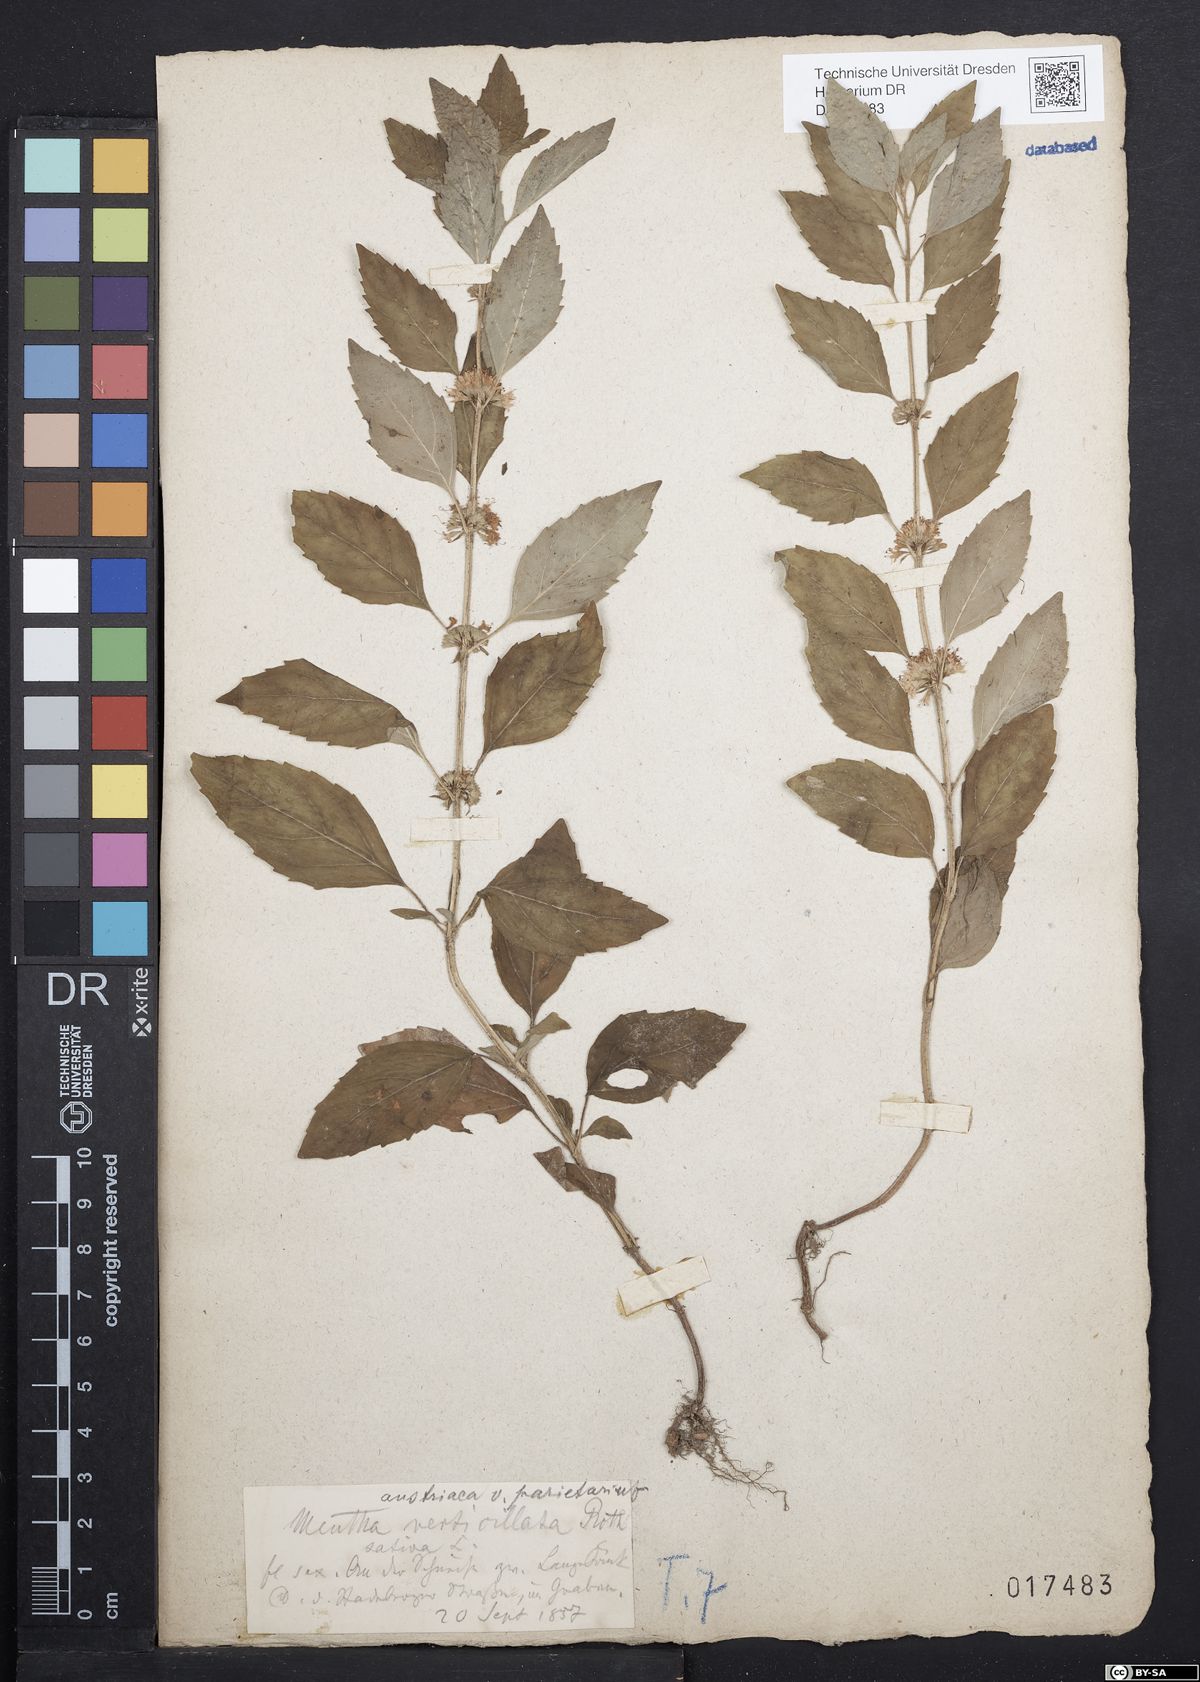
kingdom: Plantae
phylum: Tracheophyta
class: Magnoliopsida
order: Lamiales
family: Lamiaceae
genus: Mentha
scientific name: Mentha verticillata
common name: Mint
